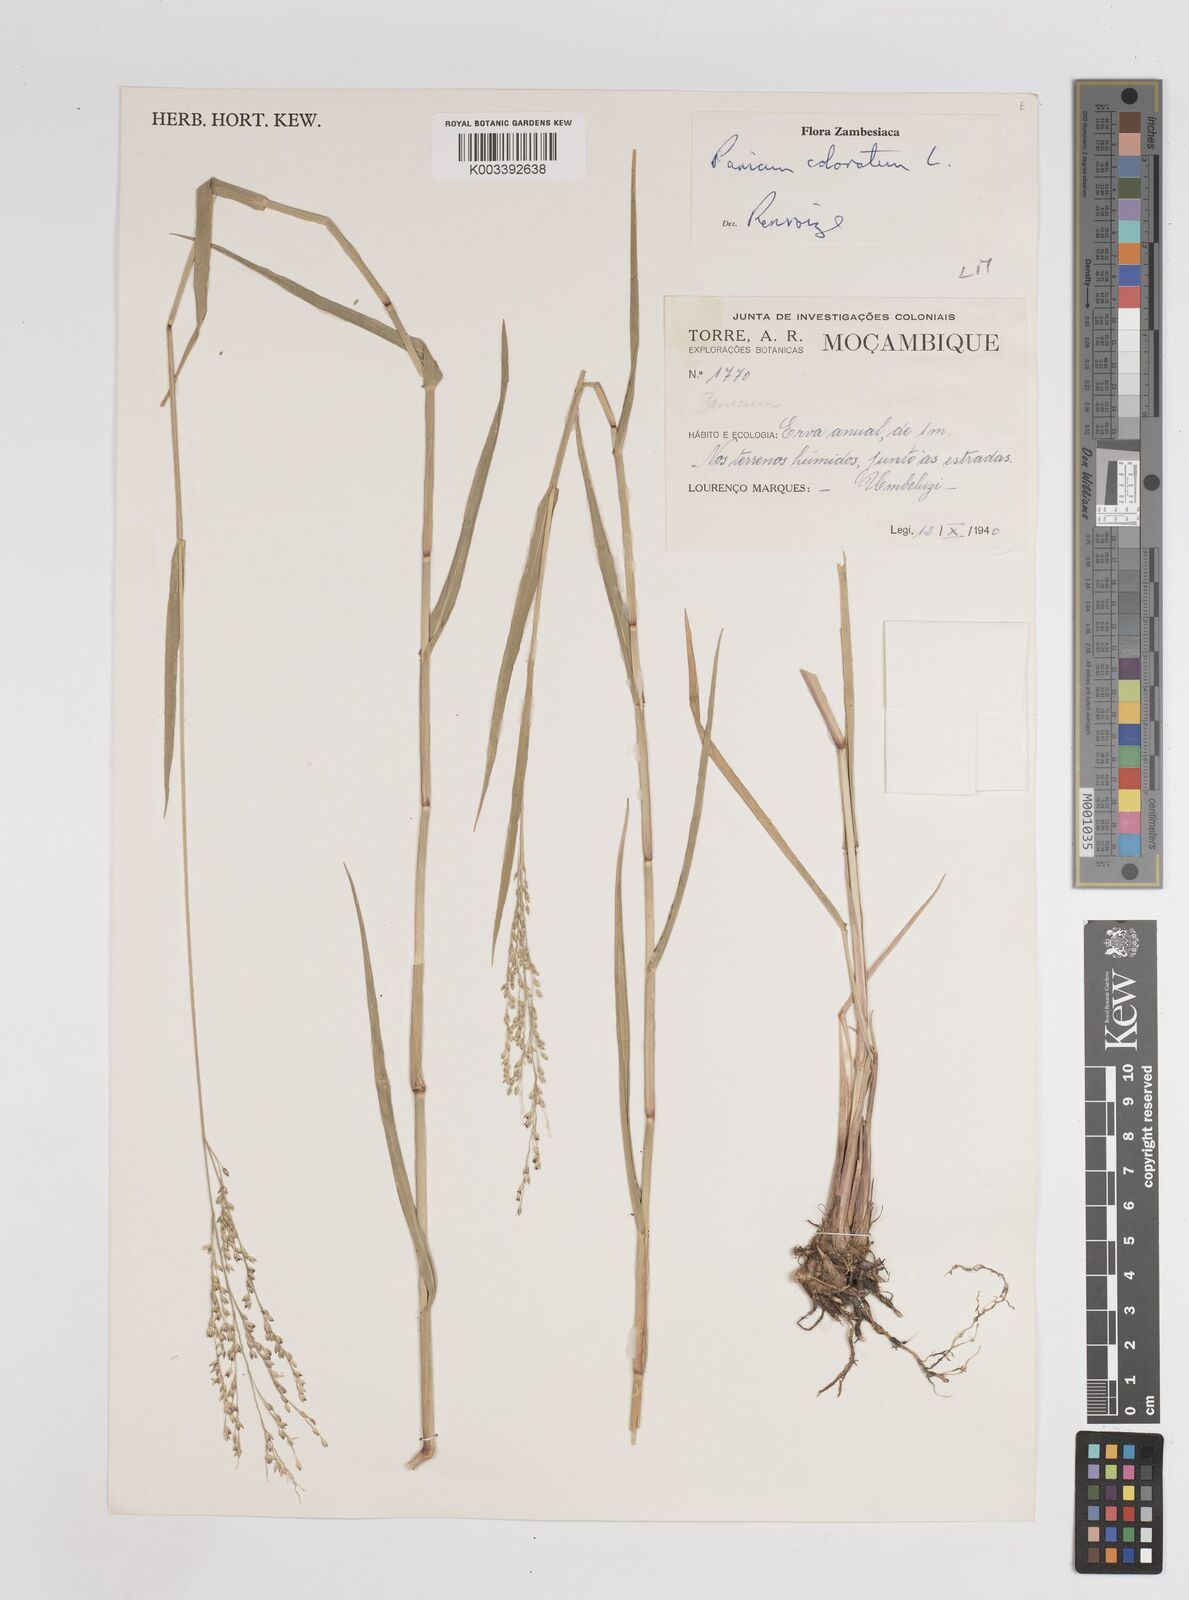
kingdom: Plantae
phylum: Tracheophyta
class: Liliopsida
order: Poales
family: Poaceae
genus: Panicum
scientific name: Panicum
